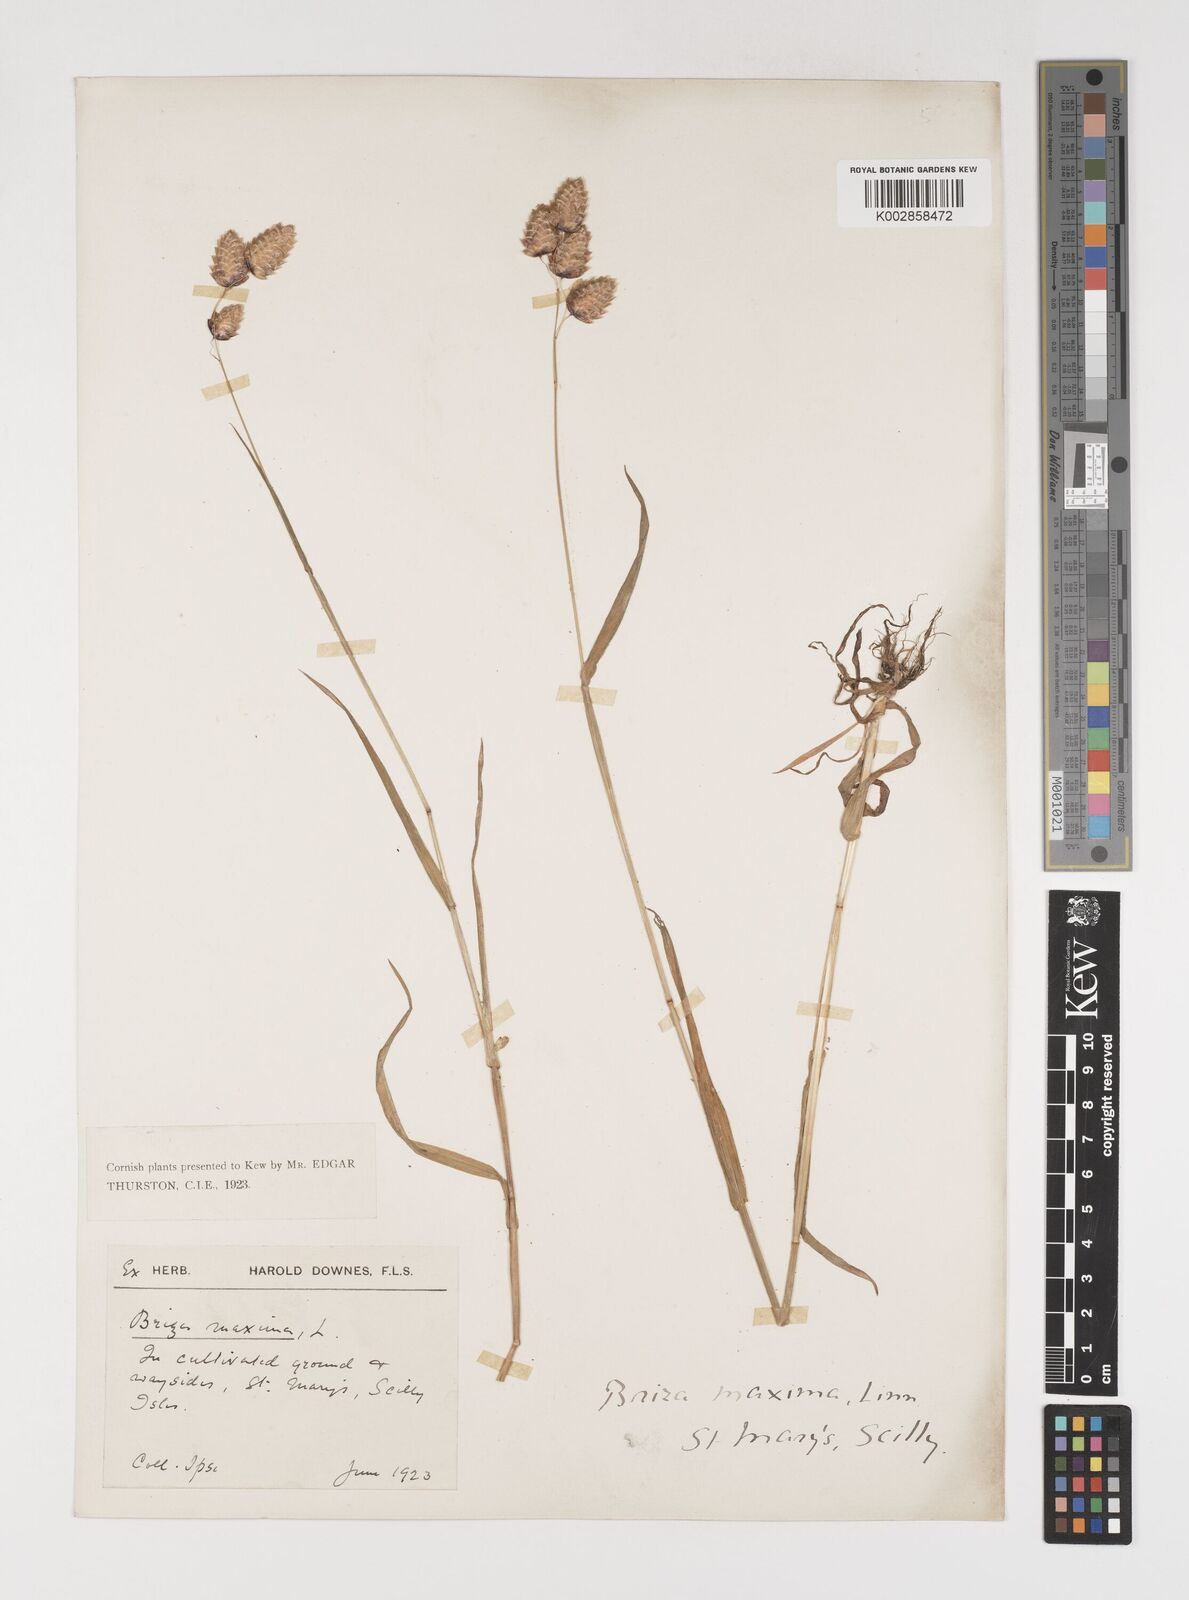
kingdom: Plantae
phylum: Tracheophyta
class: Liliopsida
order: Poales
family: Poaceae
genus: Briza
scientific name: Briza maxima
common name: Big quakinggrass
